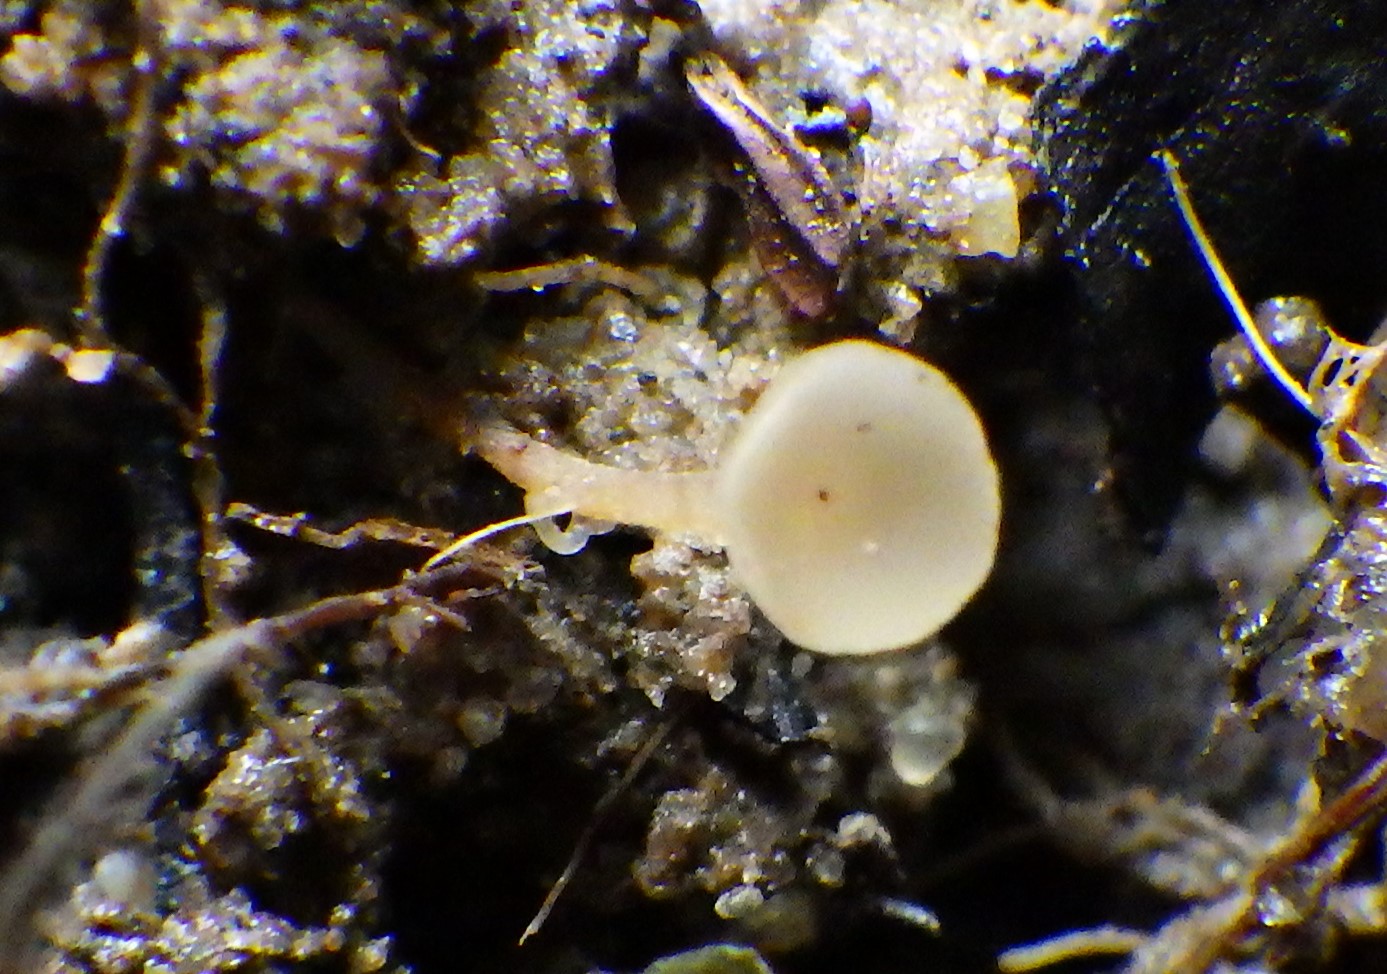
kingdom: Fungi
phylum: Ascomycota
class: Leotiomycetes
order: Helotiales
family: Sclerotiniaceae
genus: Ciboria
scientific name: Ciboria amentacea
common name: ellerakle-knoldskive
